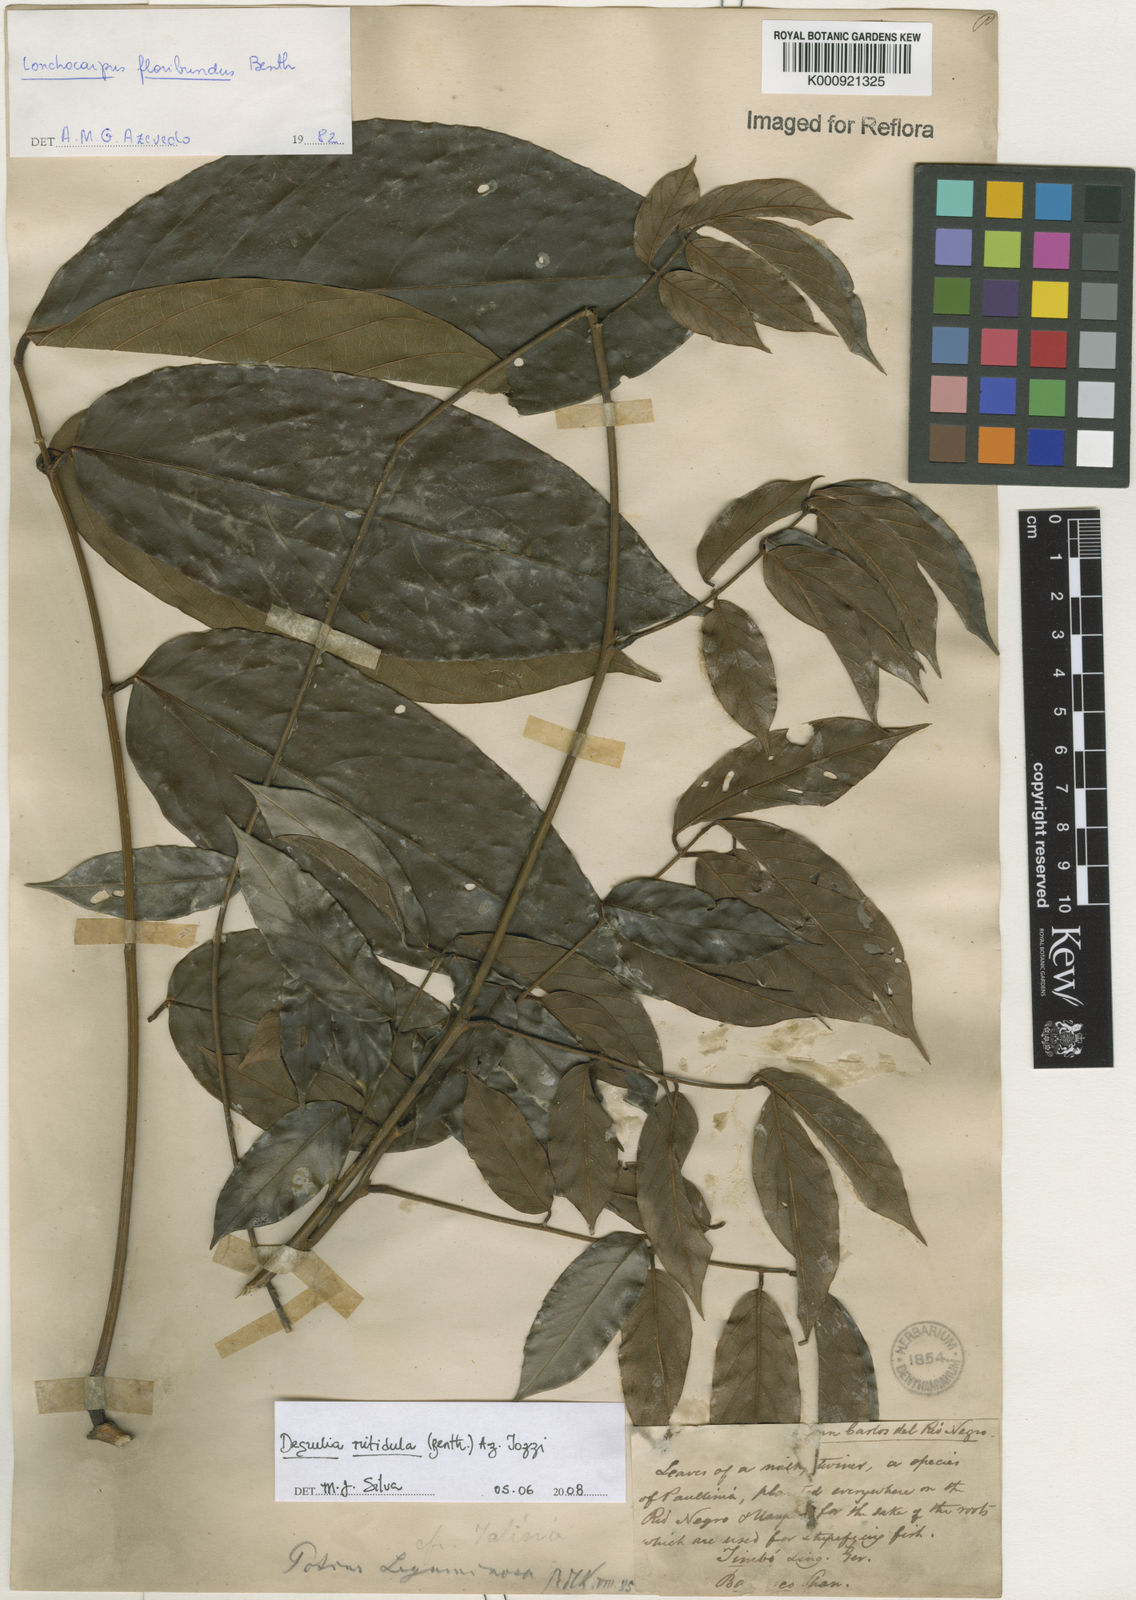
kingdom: Plantae
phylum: Tracheophyta
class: Magnoliopsida
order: Fabales
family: Fabaceae
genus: Deguelia
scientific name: Deguelia nitidula
